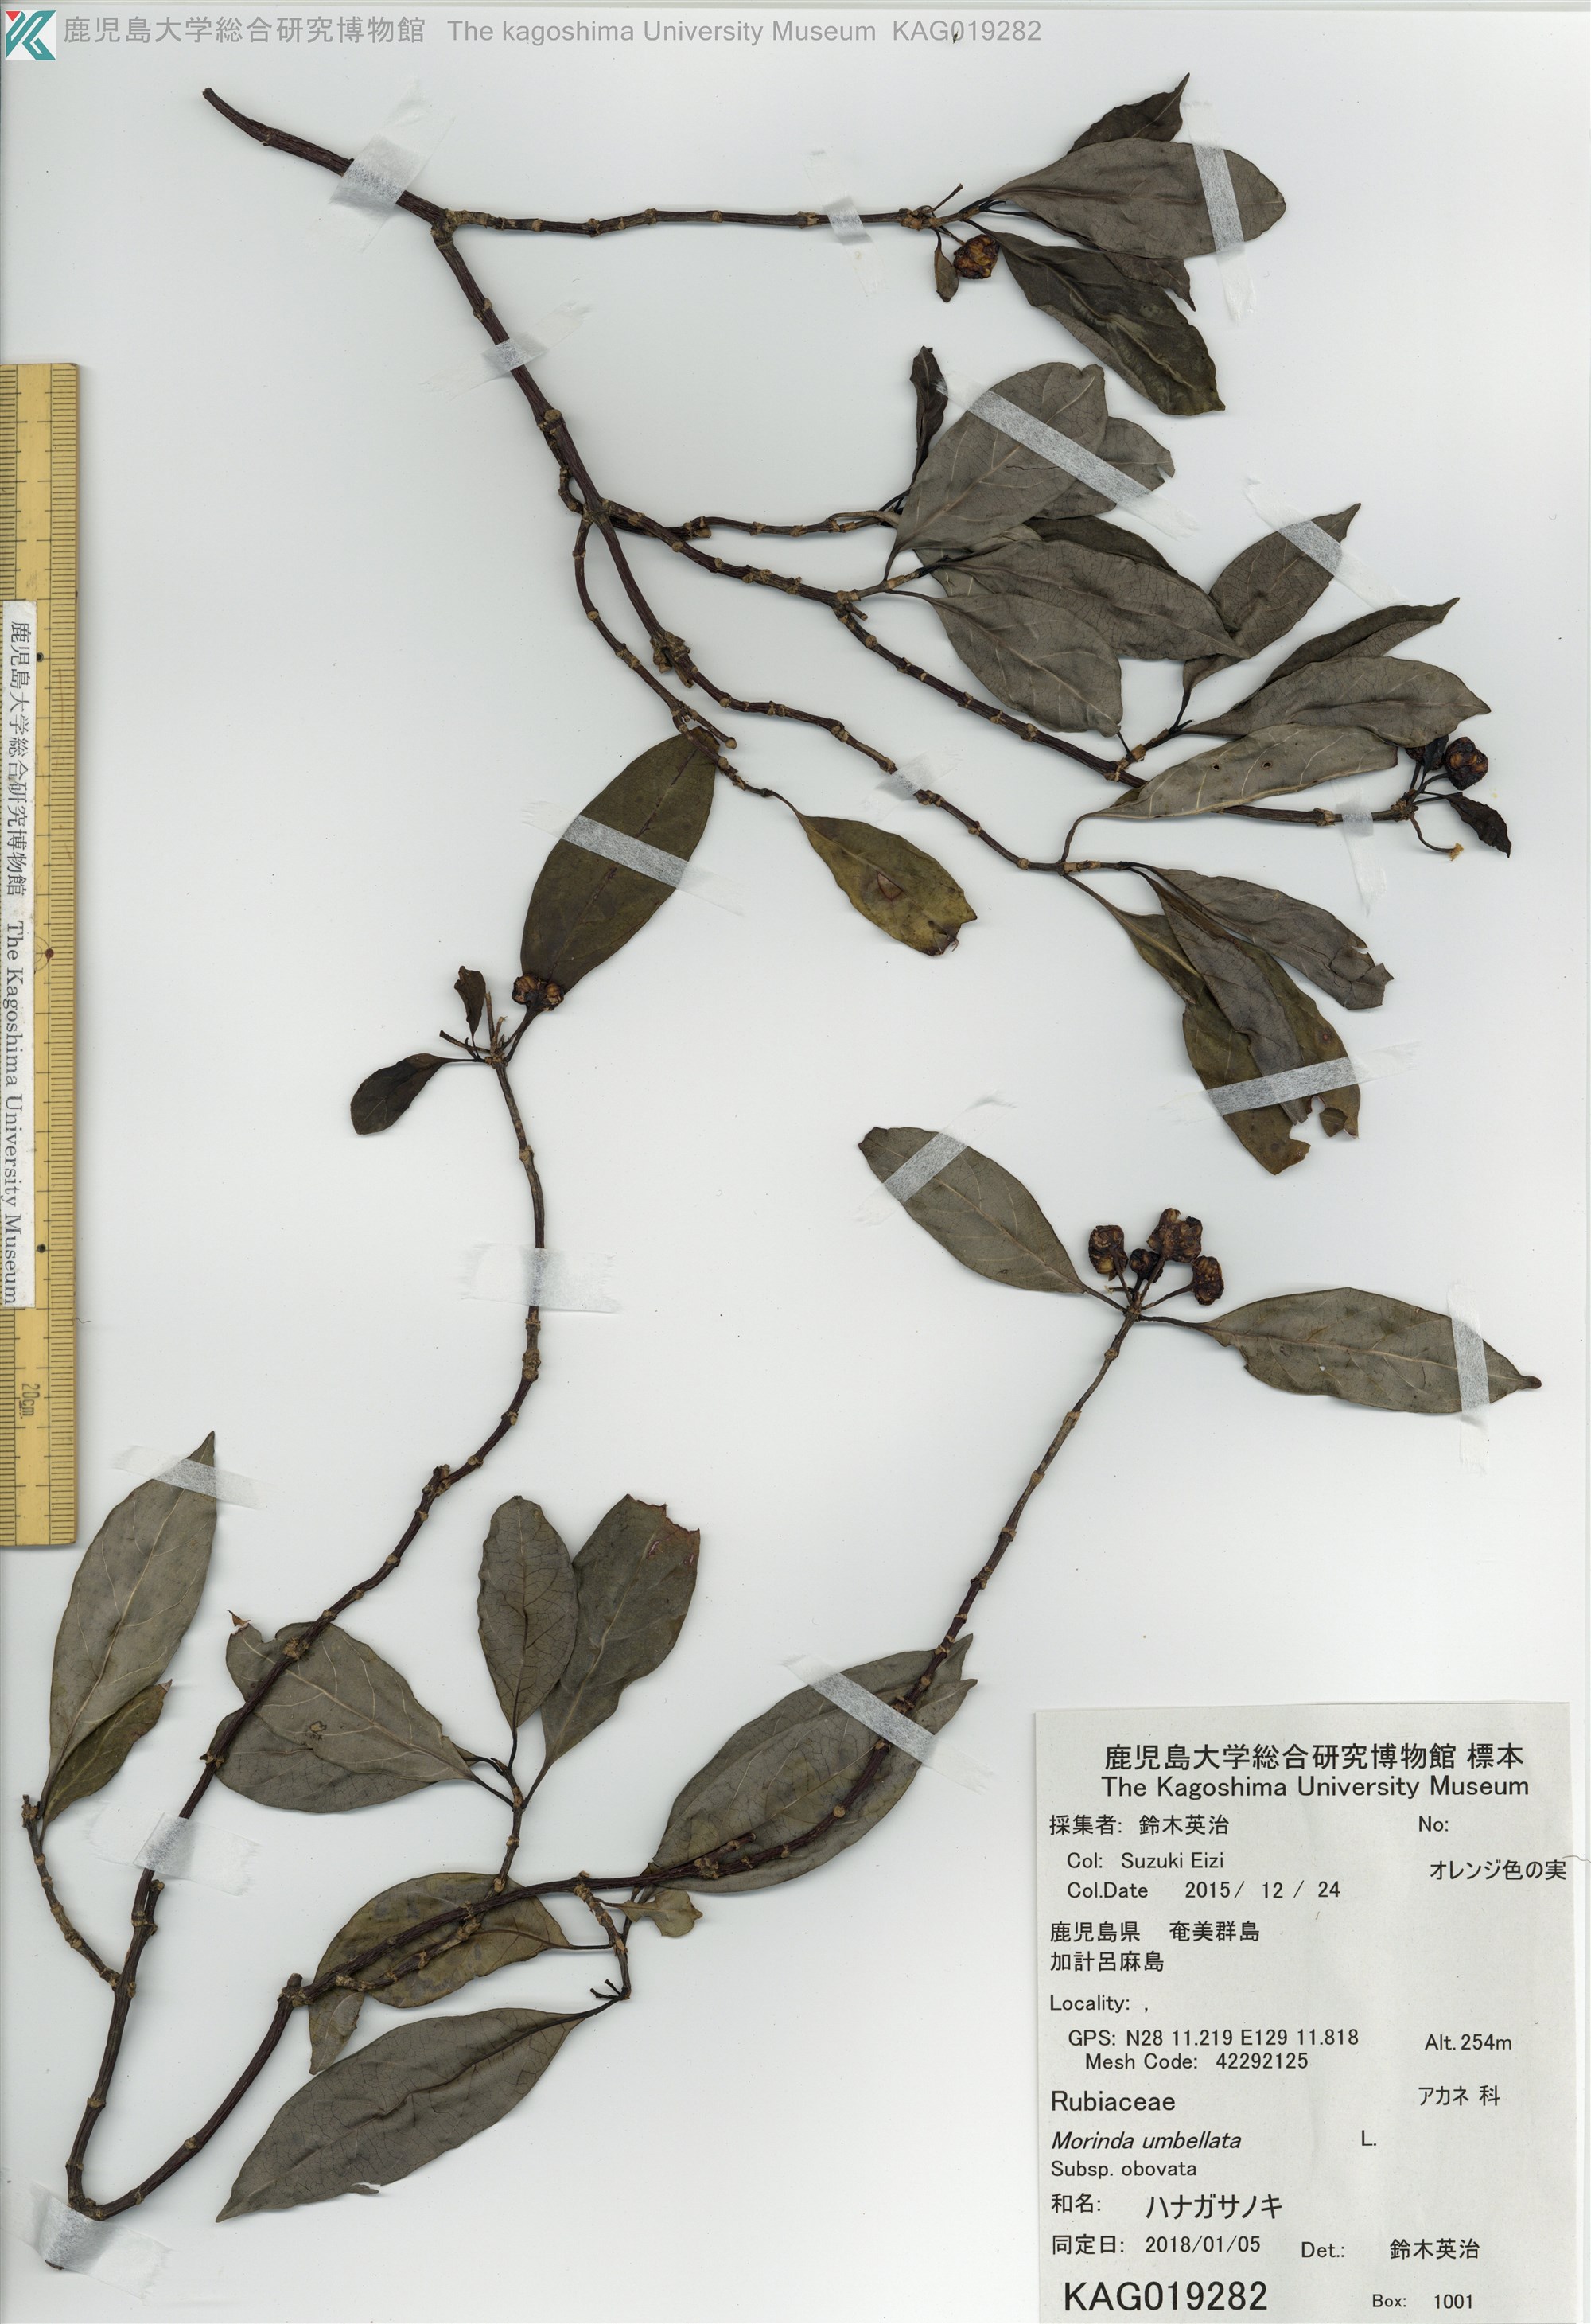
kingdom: Plantae
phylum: Tracheophyta
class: Magnoliopsida
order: Gentianales
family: Rubiaceae
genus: Gynochthodes
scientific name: Gynochthodes umbellata
